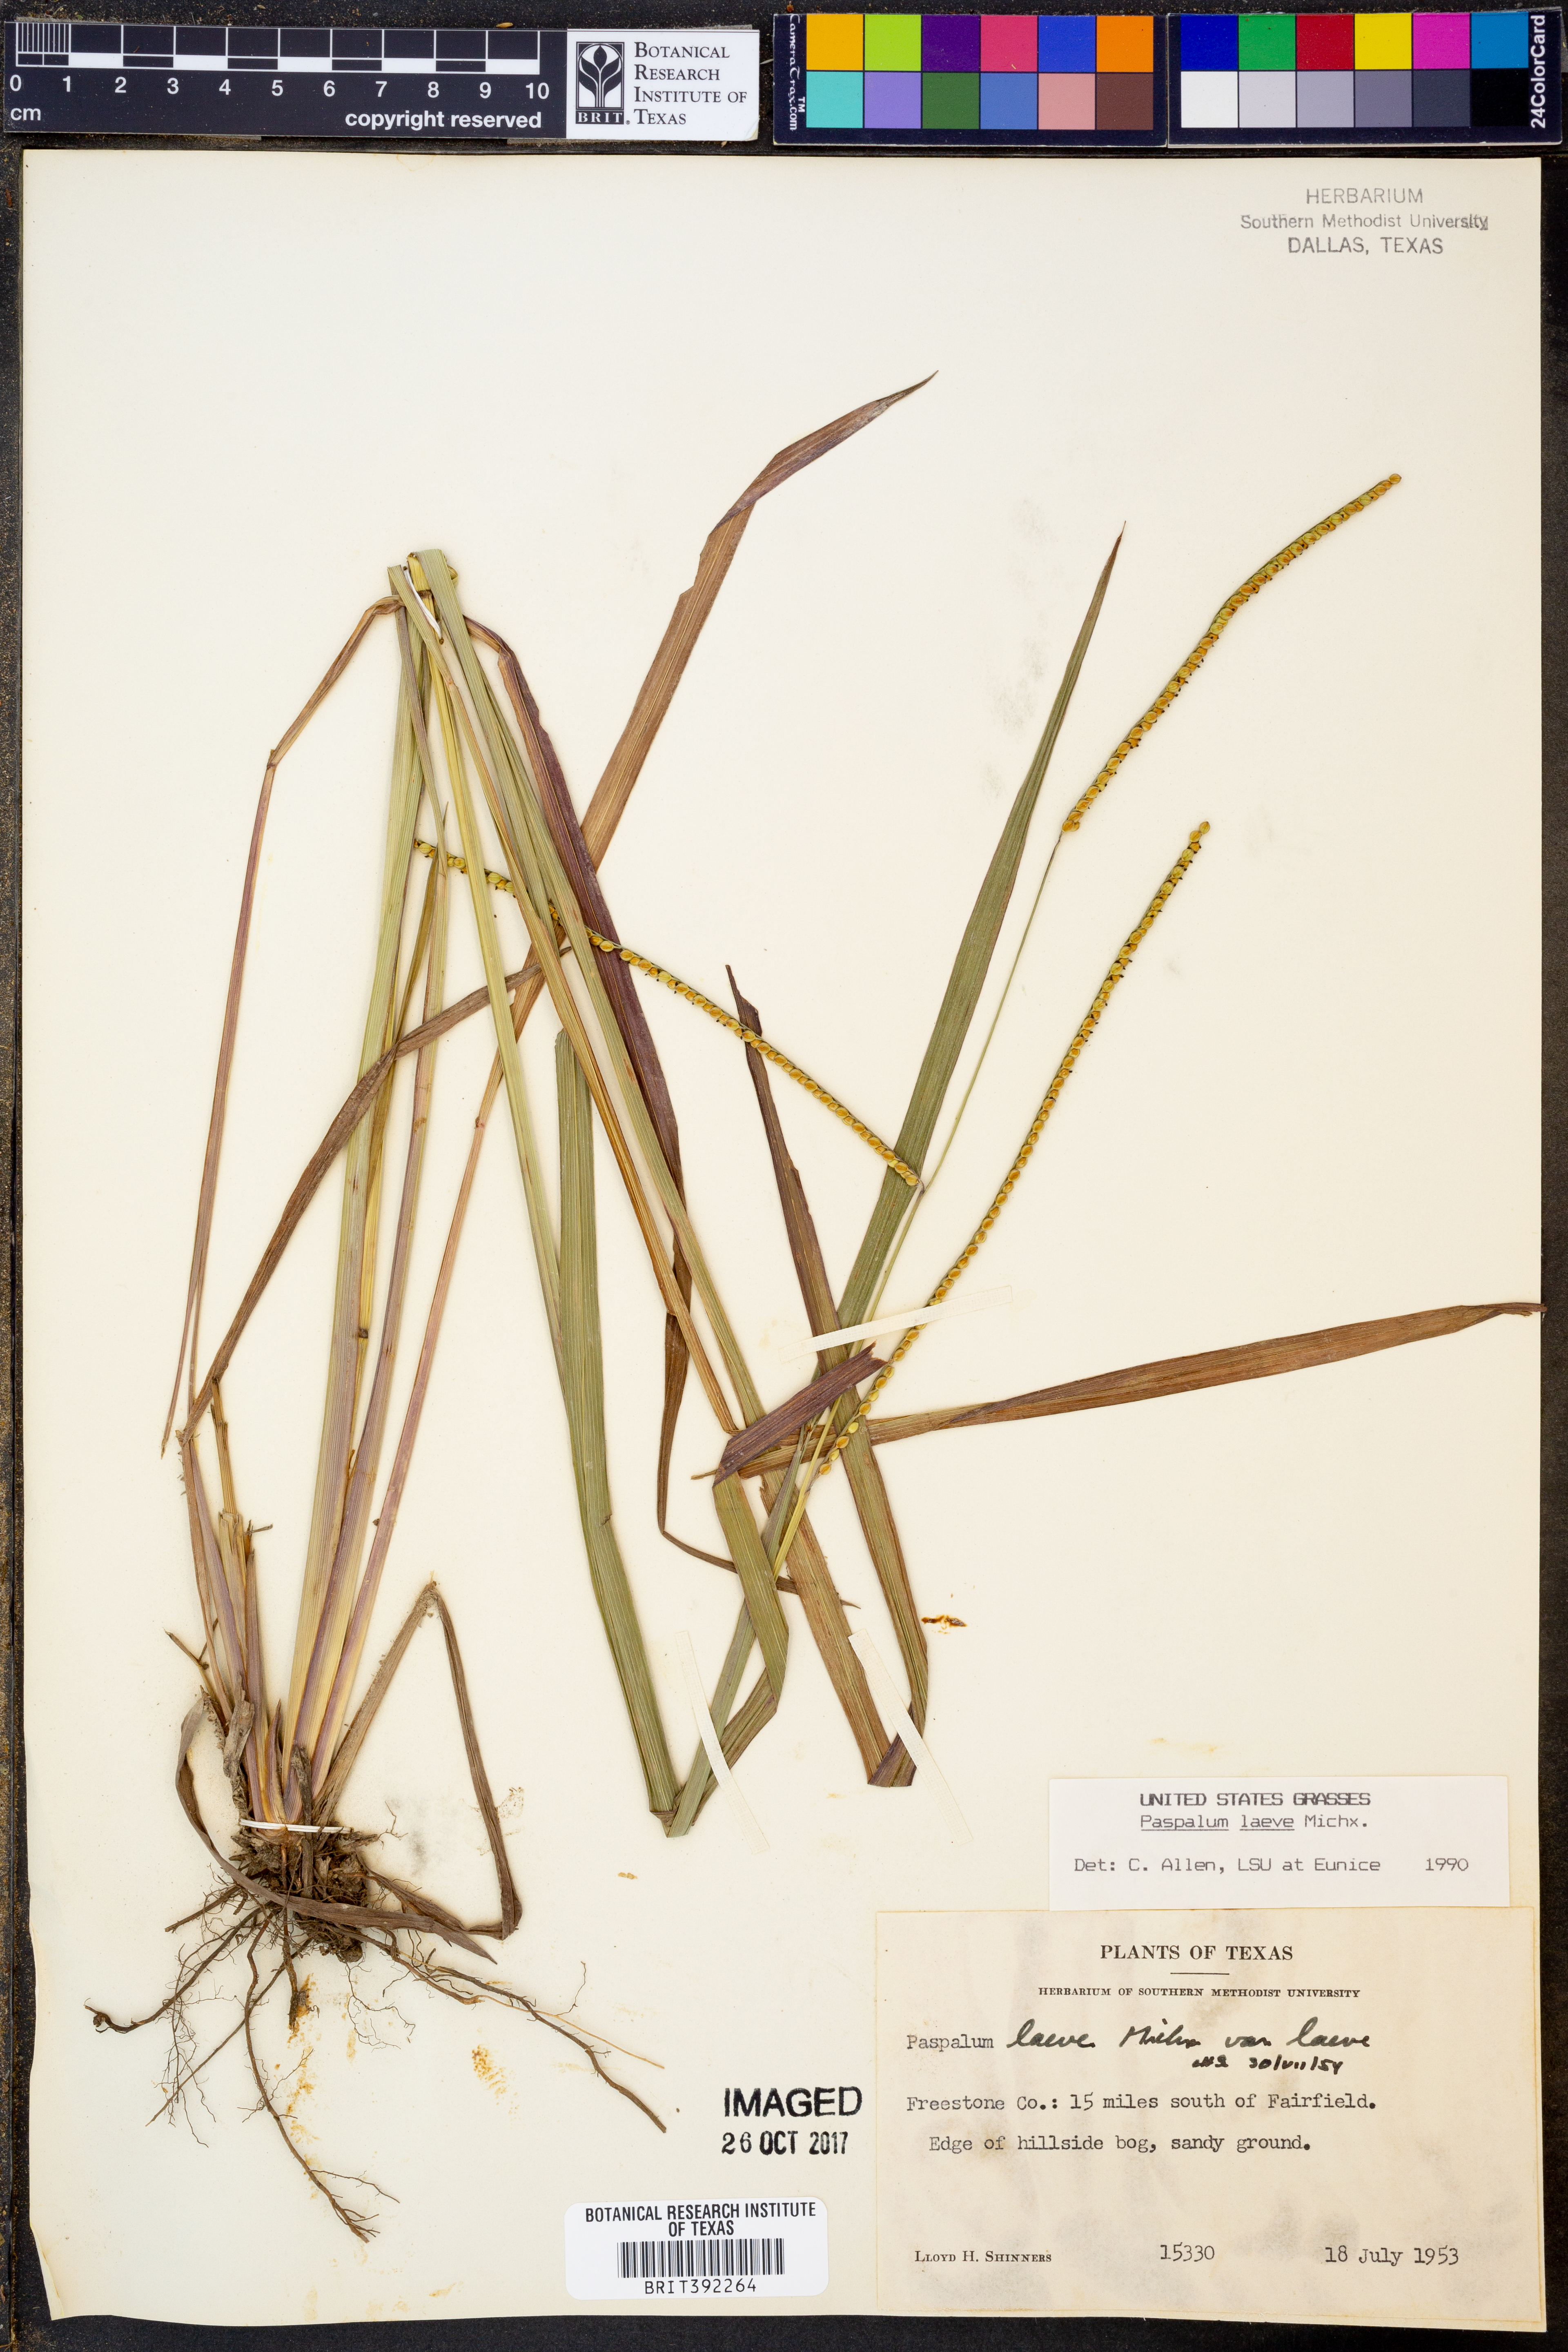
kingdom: Plantae
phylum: Tracheophyta
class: Liliopsida
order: Poales
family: Poaceae
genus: Paspalum
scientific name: Paspalum laeve
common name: Field paspalum
